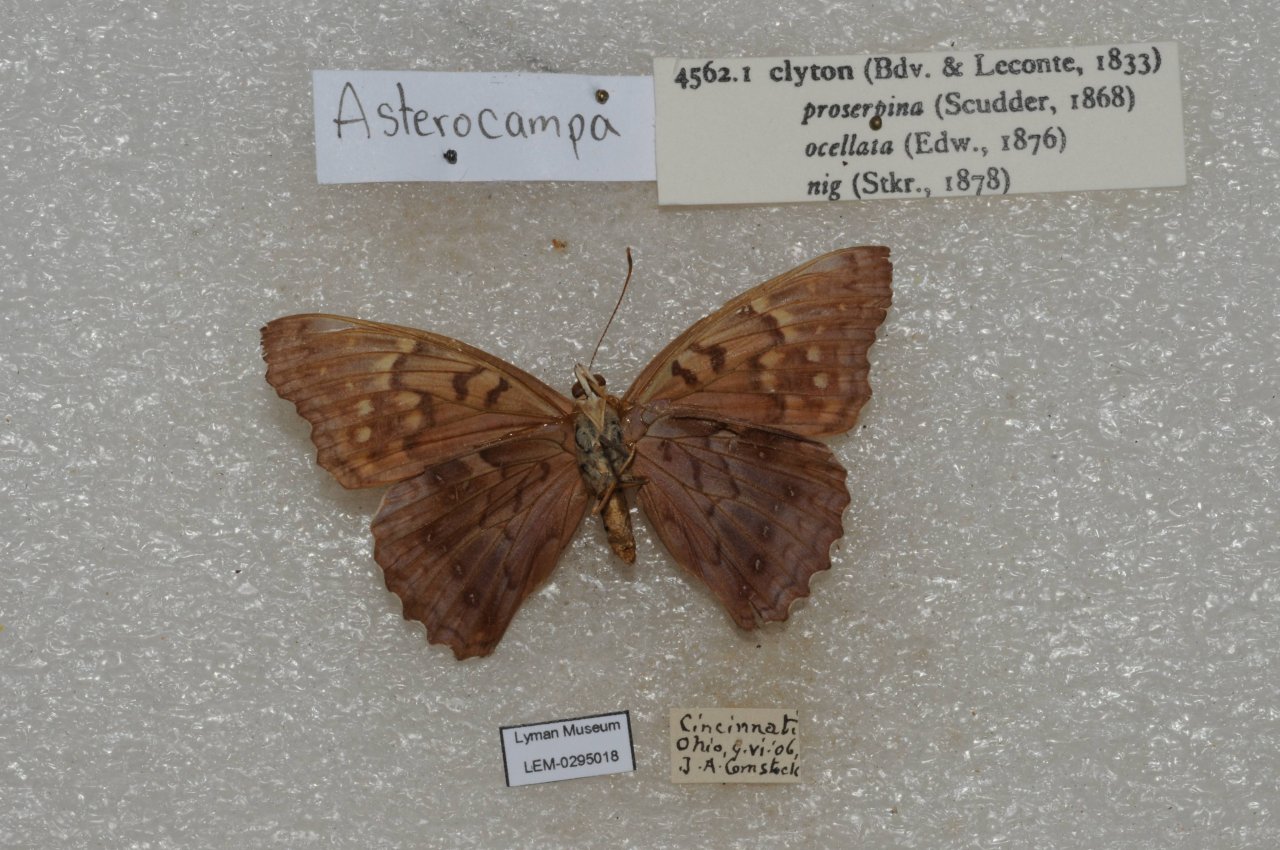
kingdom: Animalia
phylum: Arthropoda
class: Insecta
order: Lepidoptera
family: Nymphalidae
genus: Asterocampa
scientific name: Asterocampa clyton
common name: Tawny Emperor
